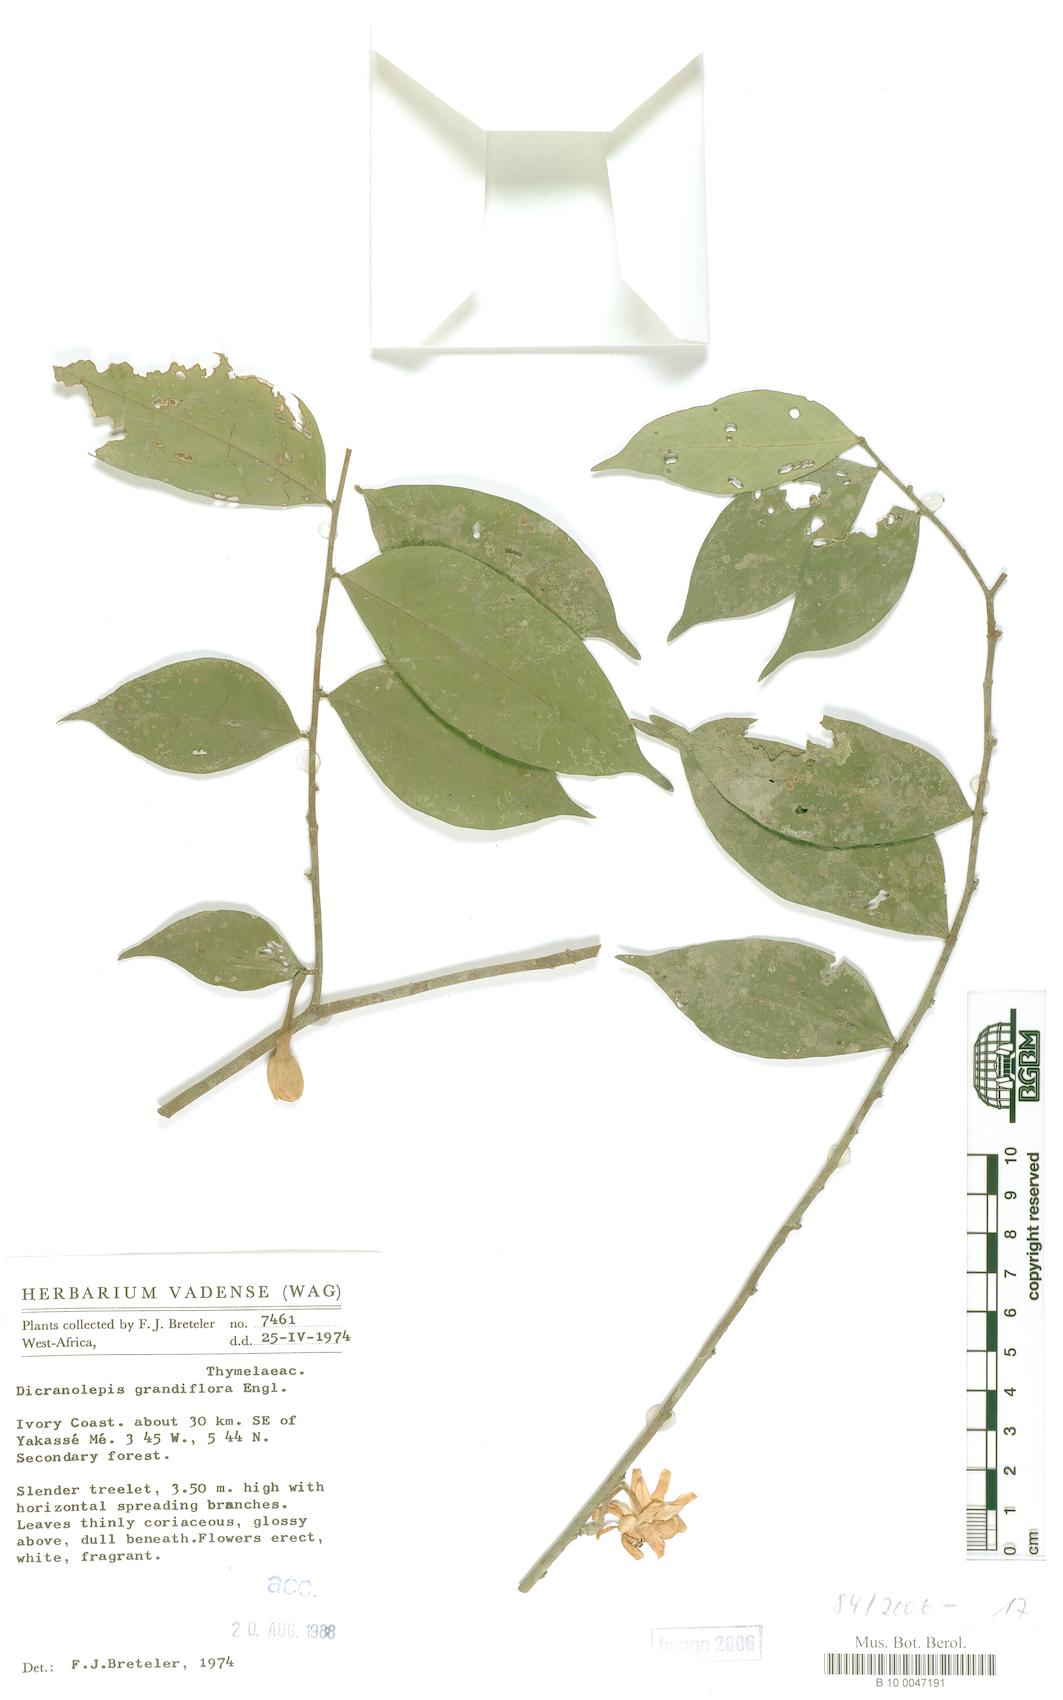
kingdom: Plantae
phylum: Tracheophyta
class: Magnoliopsida
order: Malvales
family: Thymelaeaceae
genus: Dicranolepis
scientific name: Dicranolepis persei
